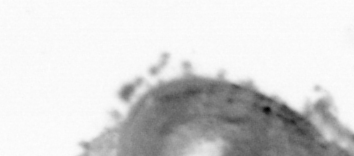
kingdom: Animalia
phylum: Arthropoda
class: Copepoda
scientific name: Copepoda
